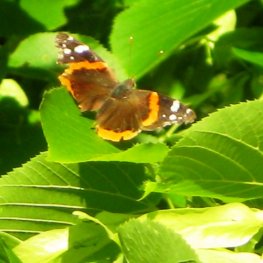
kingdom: Animalia
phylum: Arthropoda
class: Insecta
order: Lepidoptera
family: Nymphalidae
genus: Vanessa
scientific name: Vanessa atalanta
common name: Red Admiral
